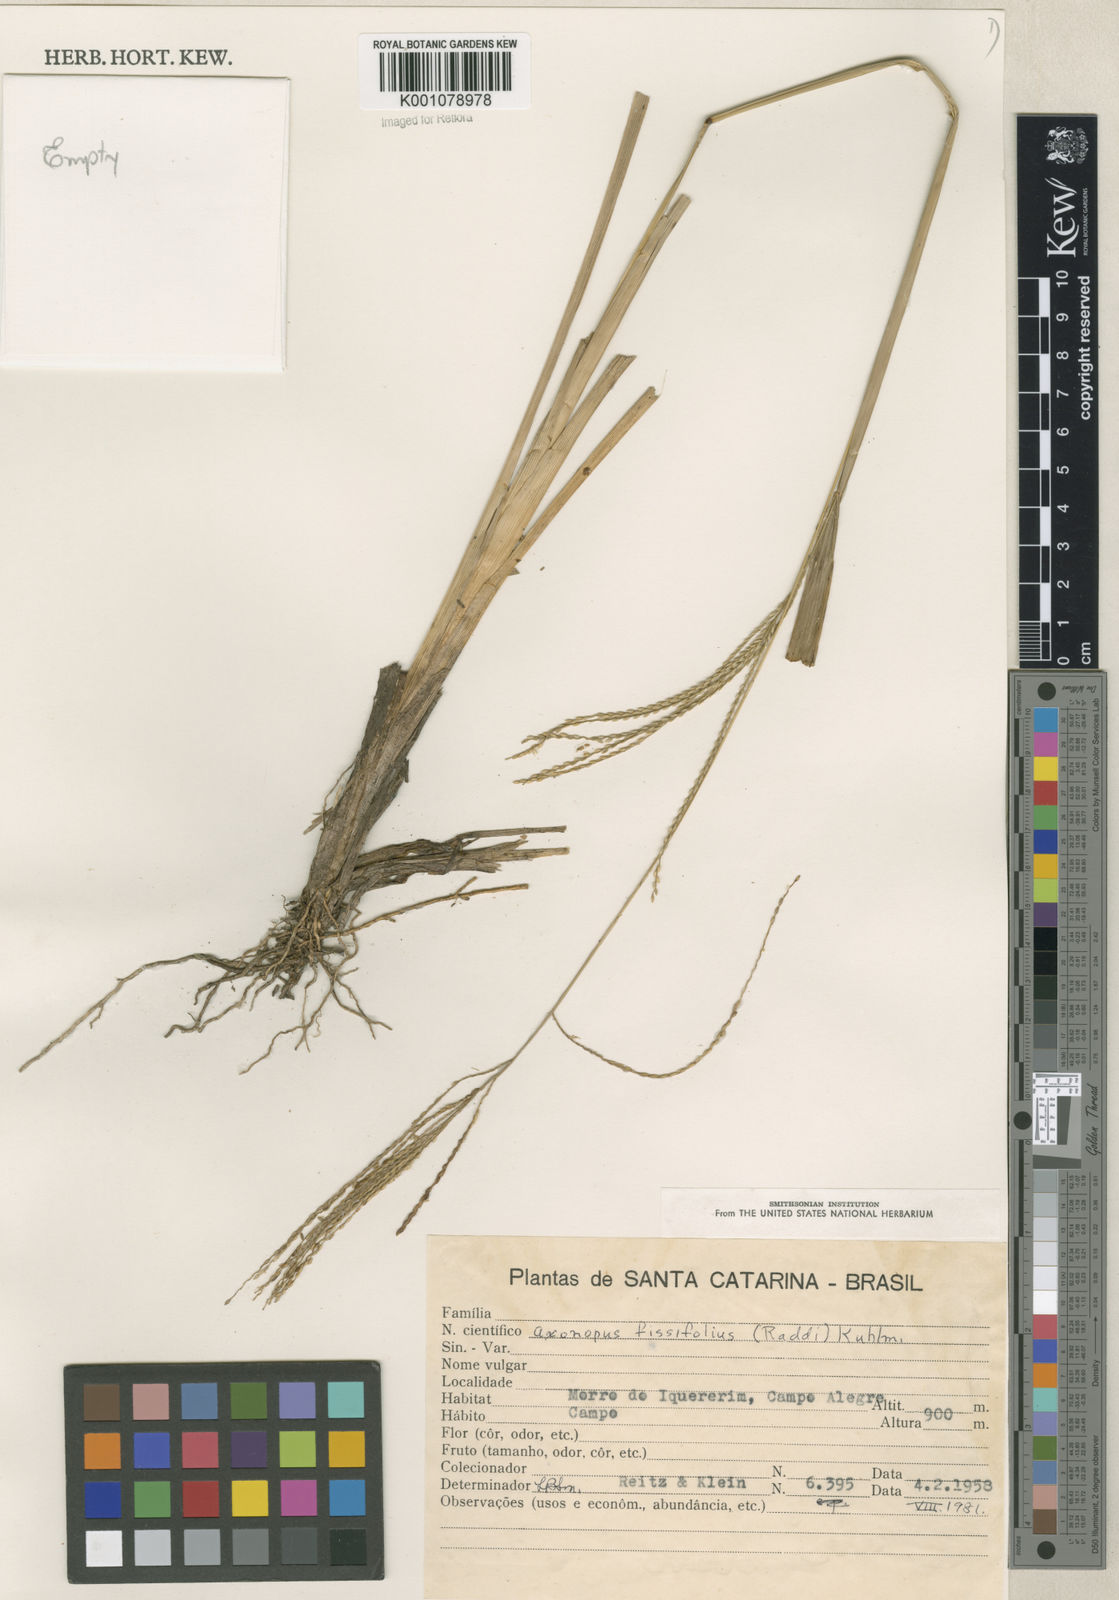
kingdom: Plantae
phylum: Tracheophyta
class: Liliopsida
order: Poales
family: Poaceae
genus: Axonopus
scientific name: Axonopus fissifolius
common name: Common carpetgrass
